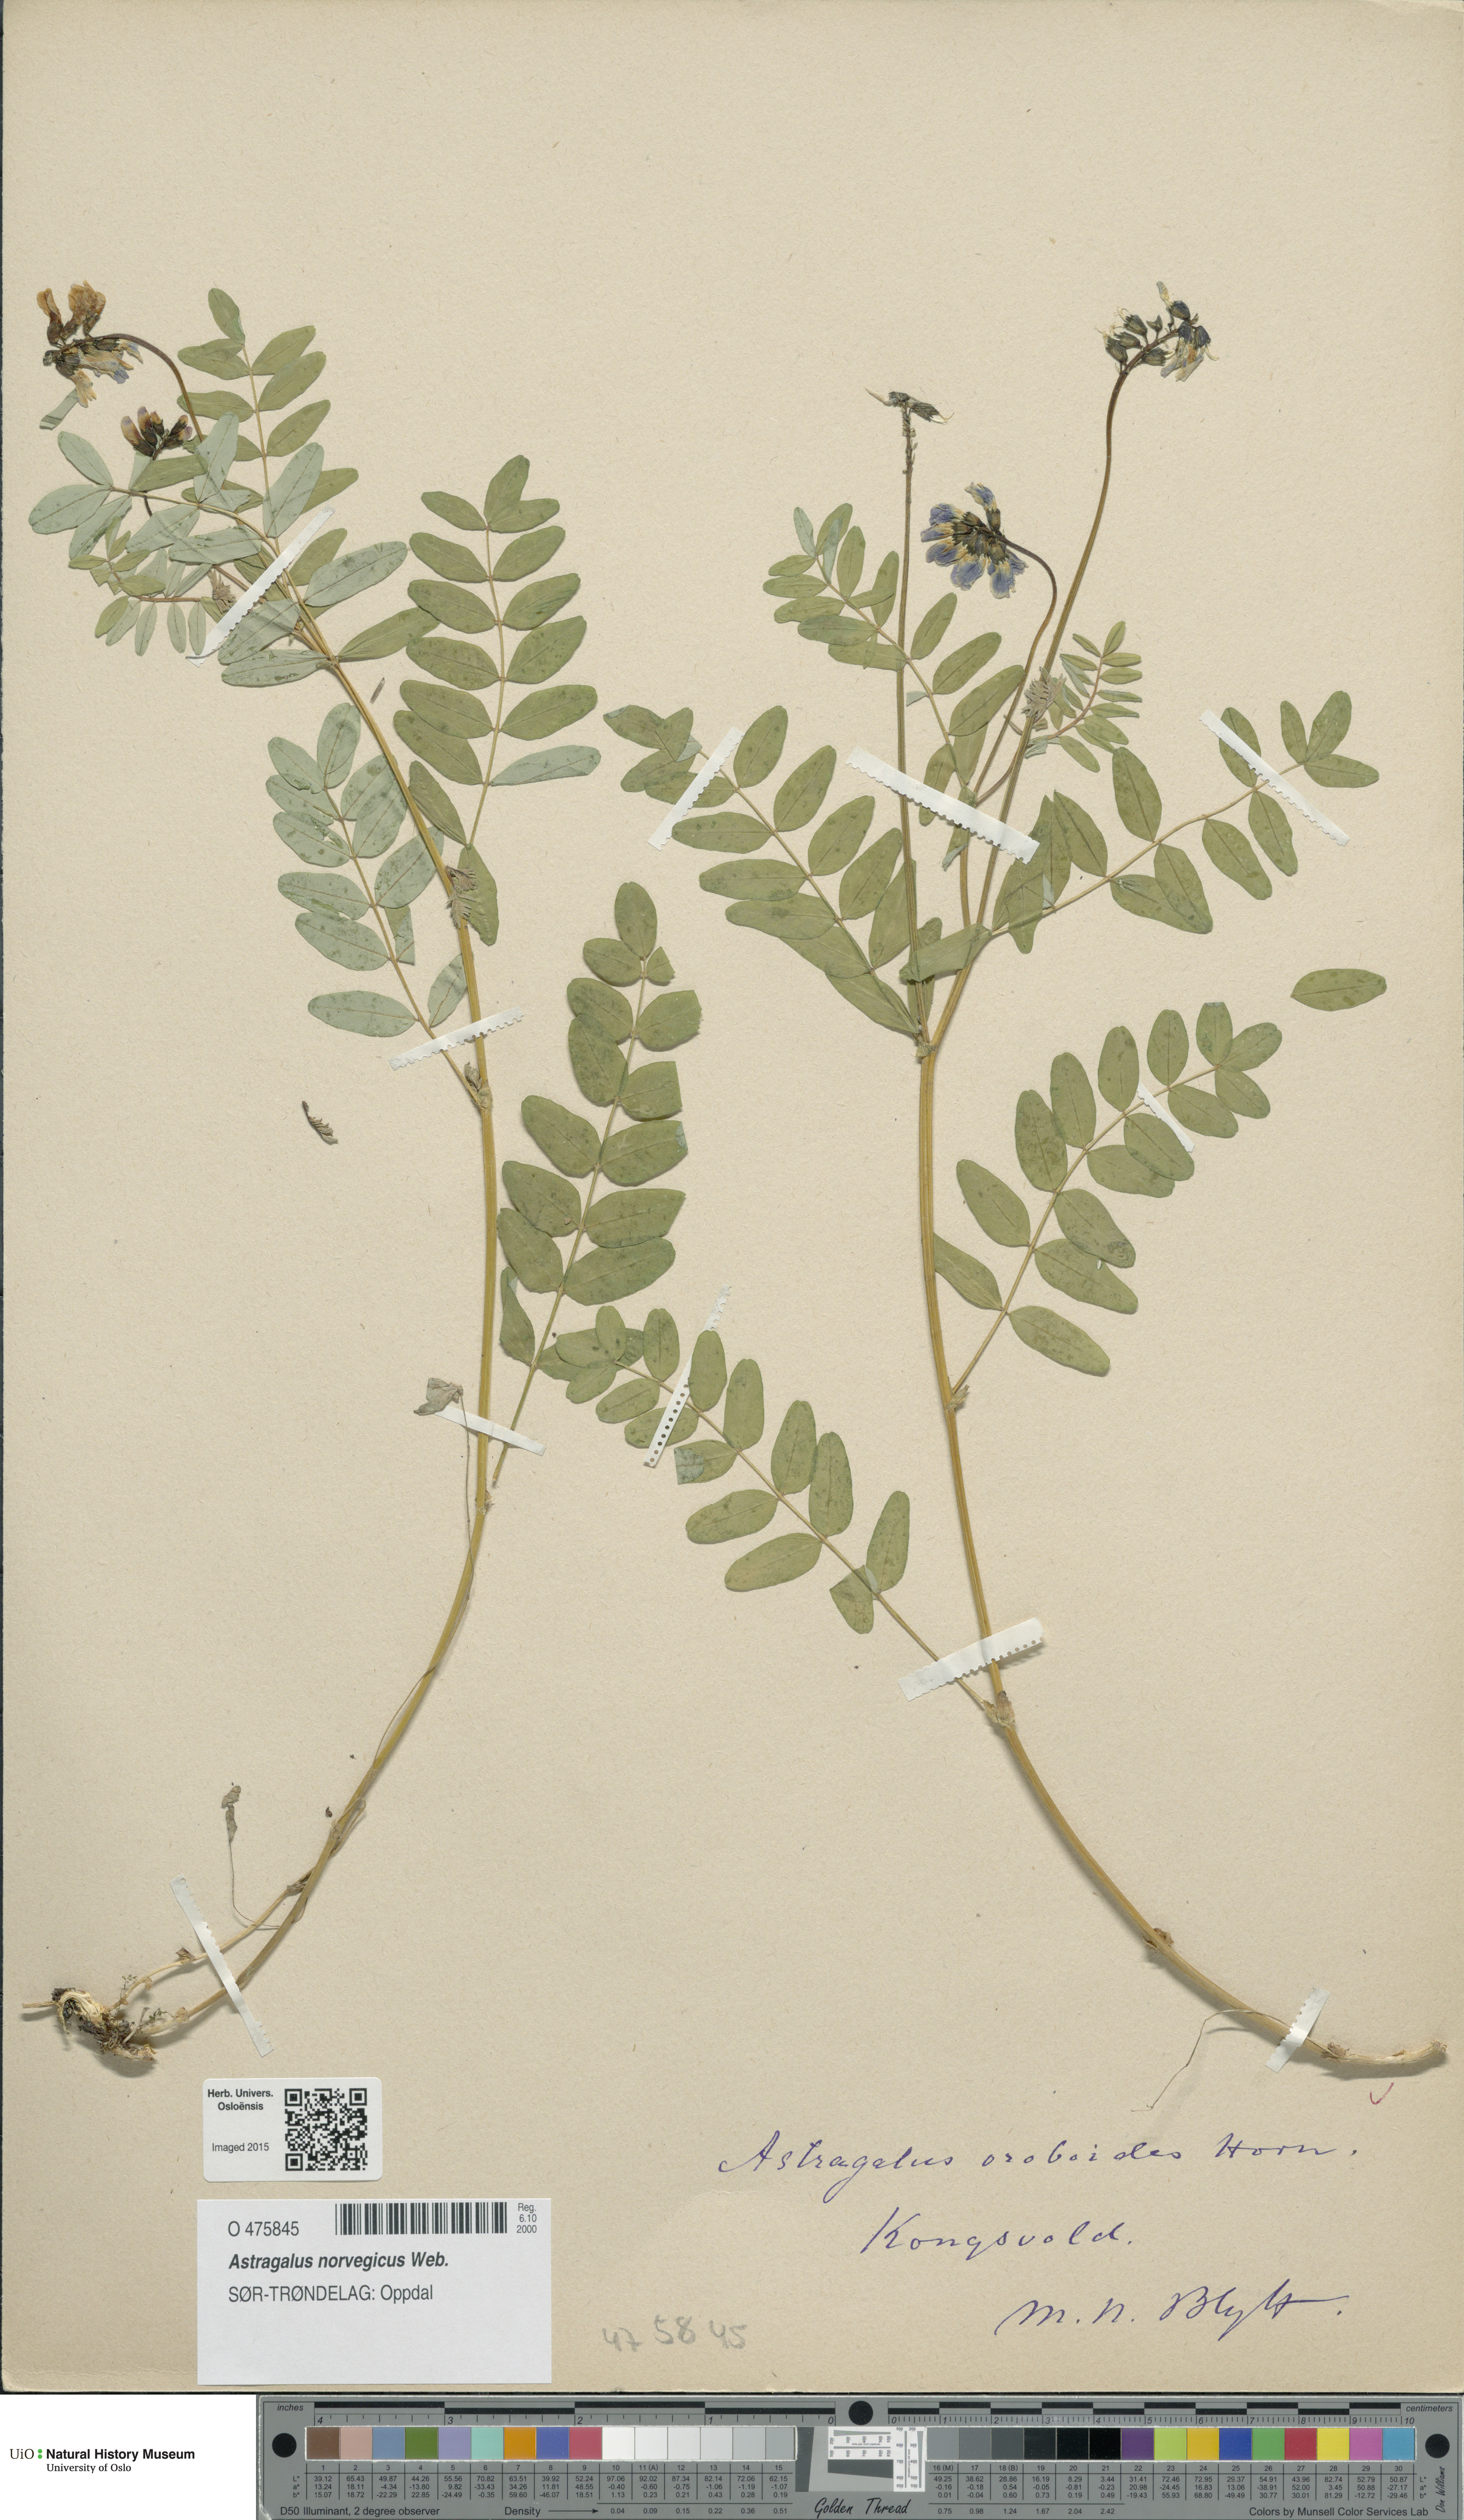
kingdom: Plantae
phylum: Tracheophyta
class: Magnoliopsida
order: Fabales
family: Fabaceae
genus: Astragalus
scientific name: Astragalus norvegicus
